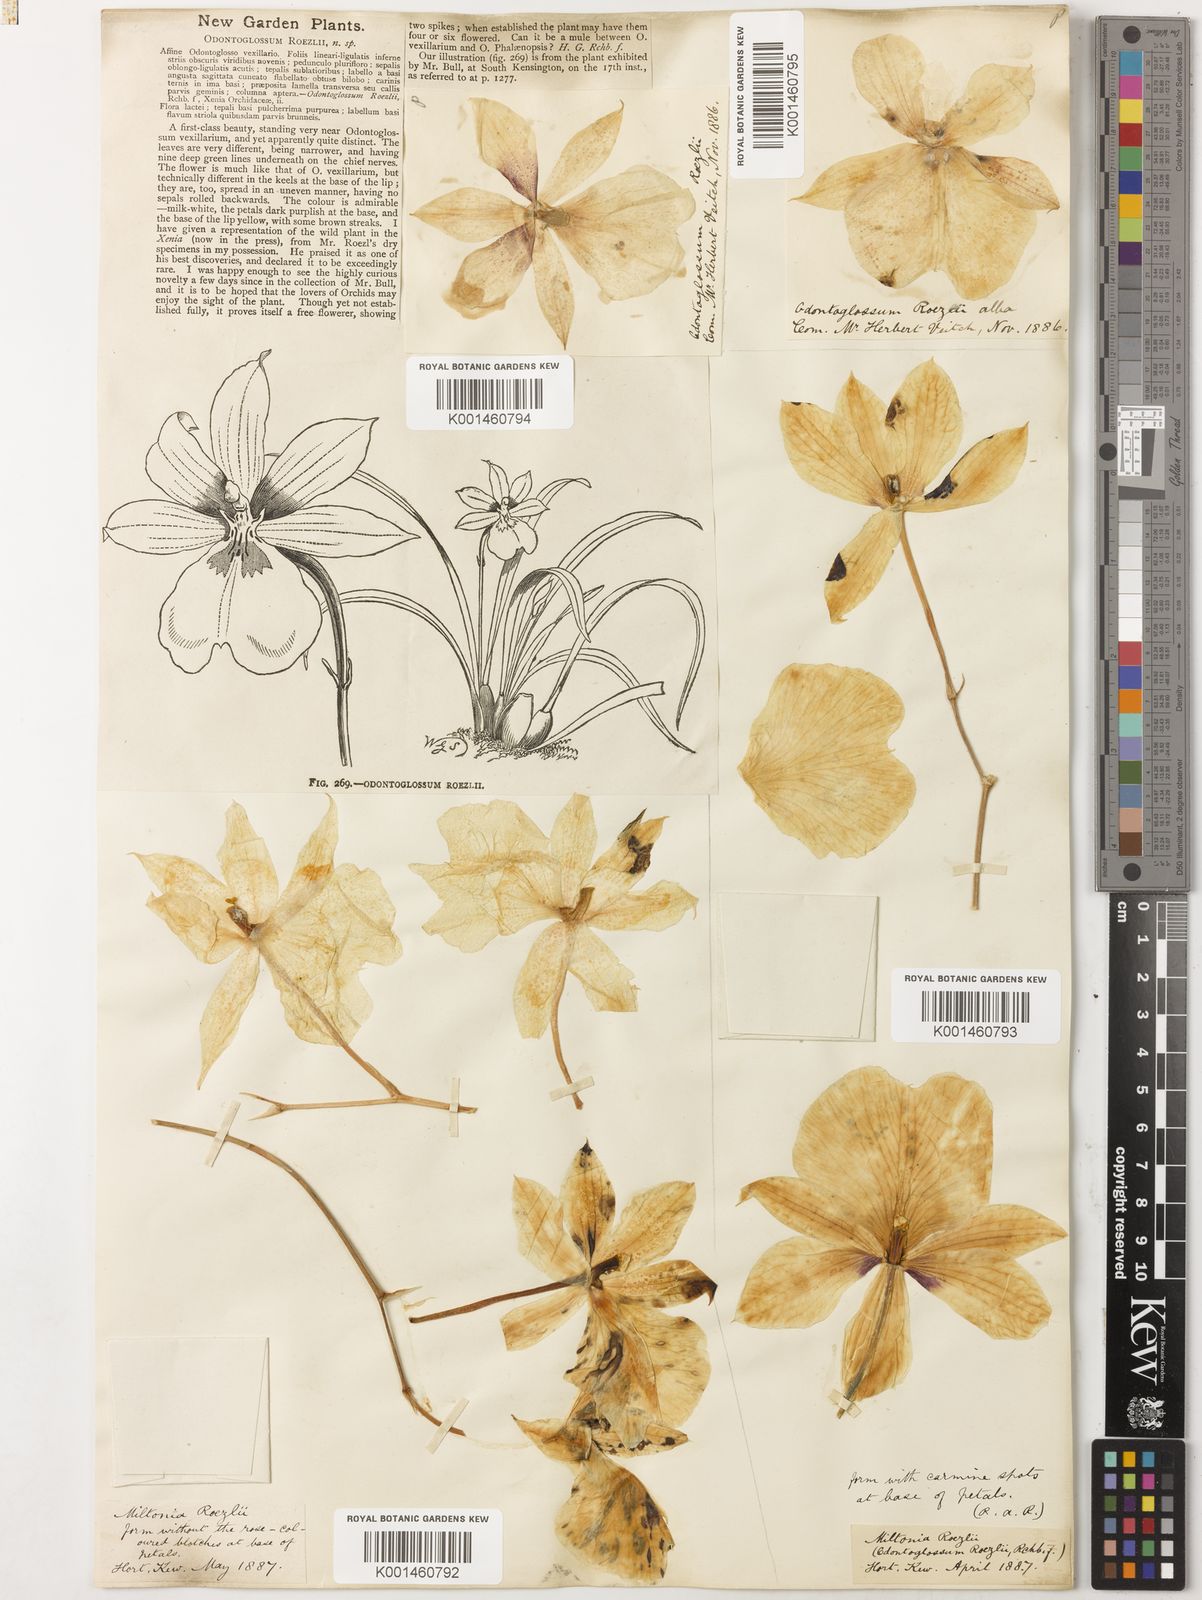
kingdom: Plantae
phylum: Tracheophyta
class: Liliopsida
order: Asparagales
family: Orchidaceae
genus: Miltoniopsis
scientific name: Miltoniopsis roezlii
